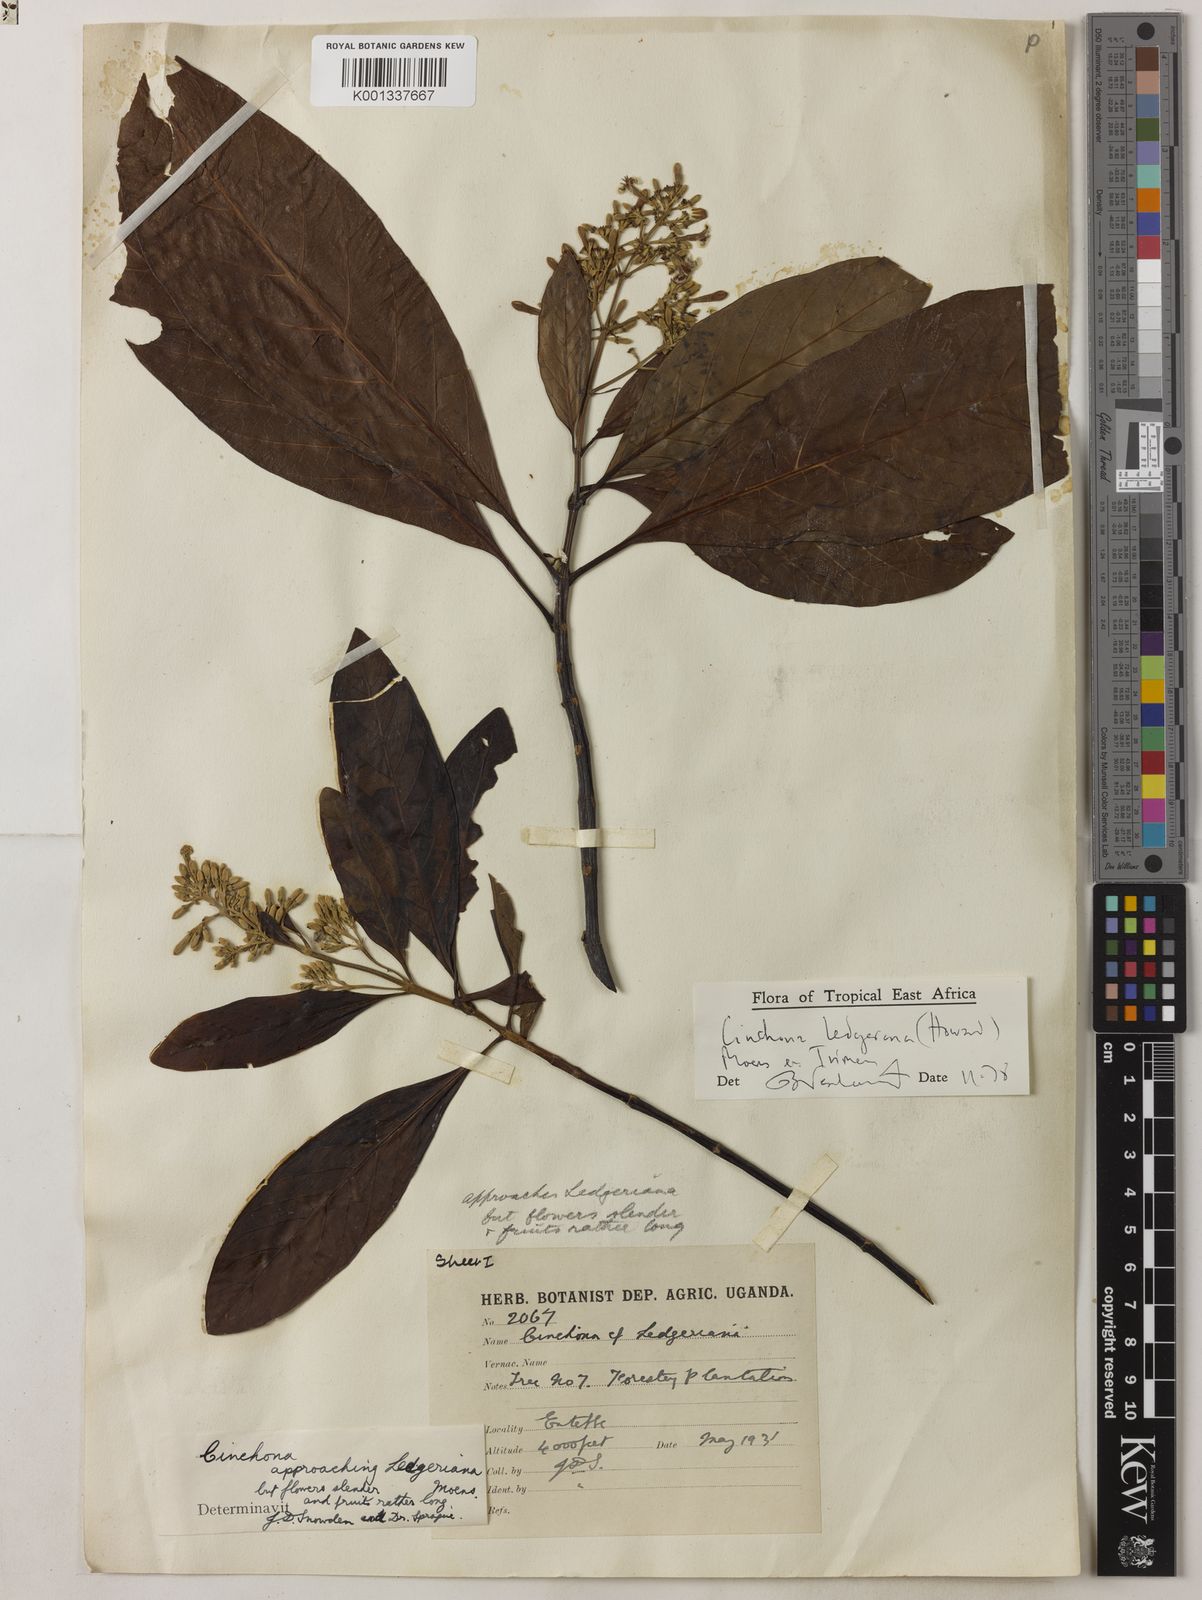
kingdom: Plantae
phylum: Tracheophyta
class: Magnoliopsida
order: Gentianales
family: Rubiaceae
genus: Cinchona
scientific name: Cinchona calisaya
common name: Ledgerbark
